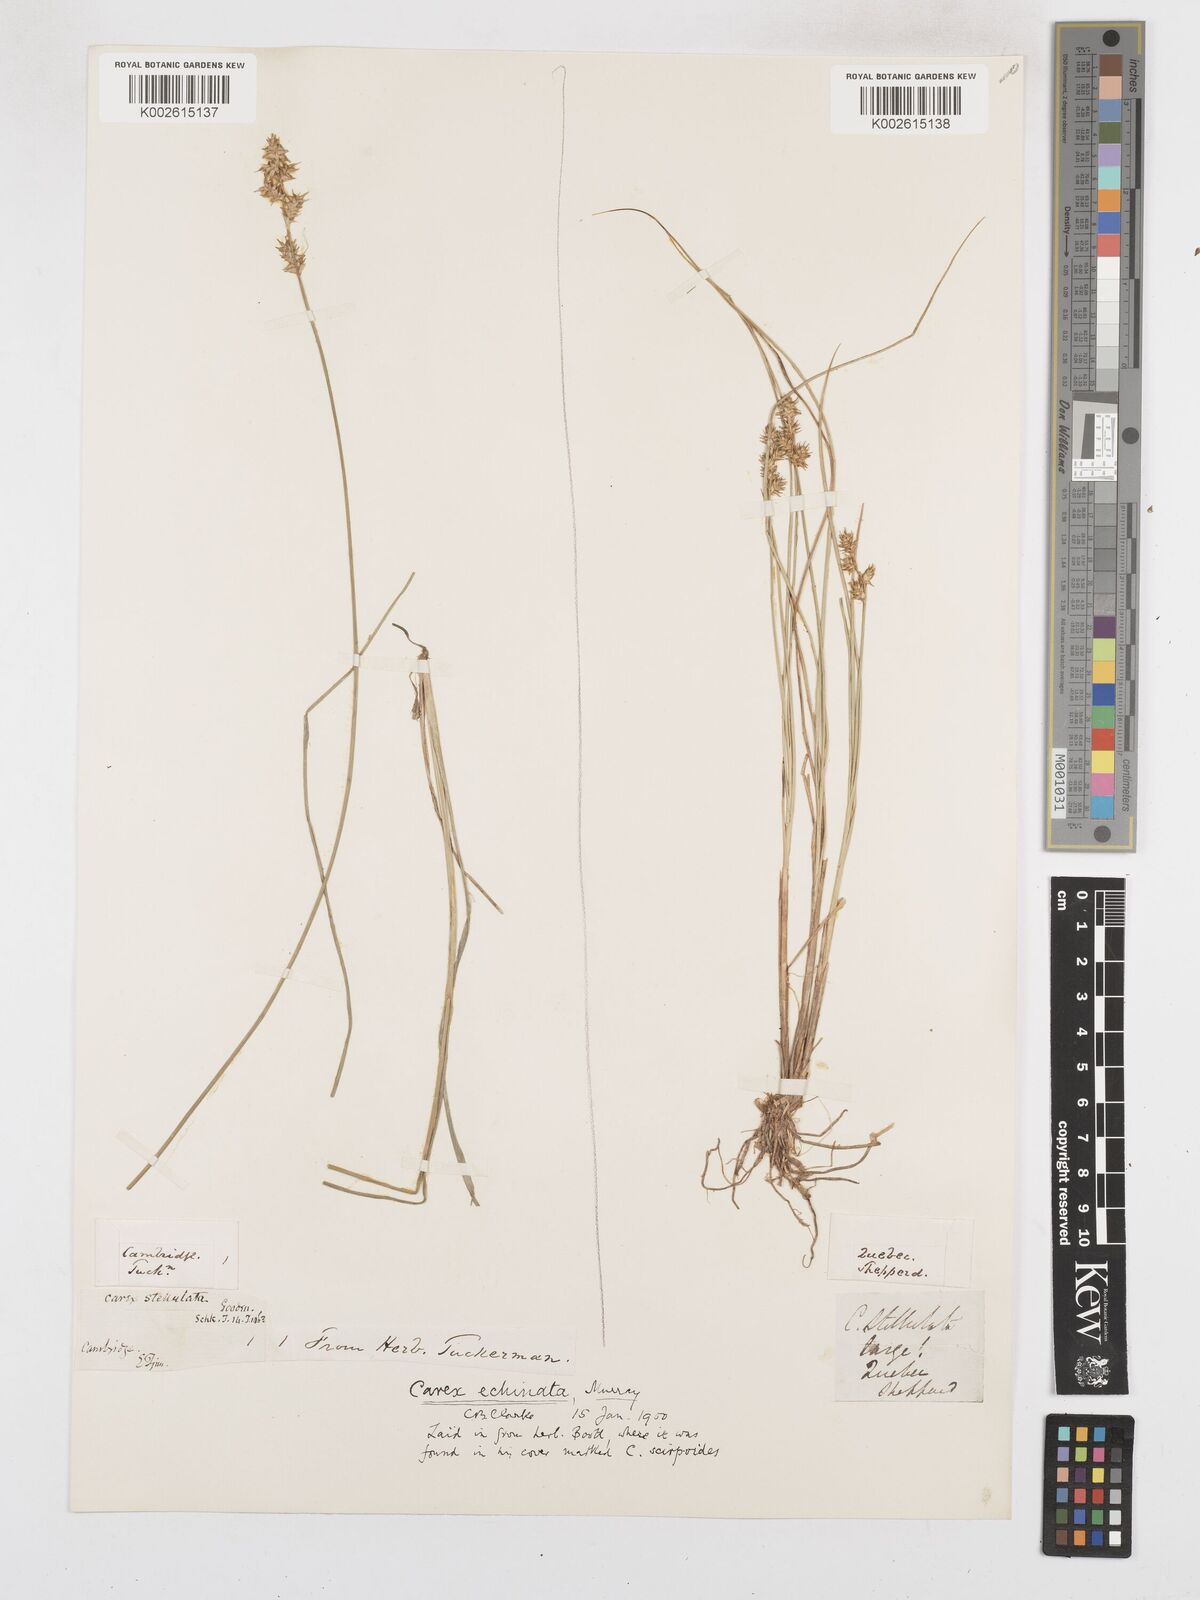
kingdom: Plantae
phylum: Tracheophyta
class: Liliopsida
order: Poales
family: Cyperaceae
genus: Carex
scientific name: Carex echinata
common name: Star sedge
